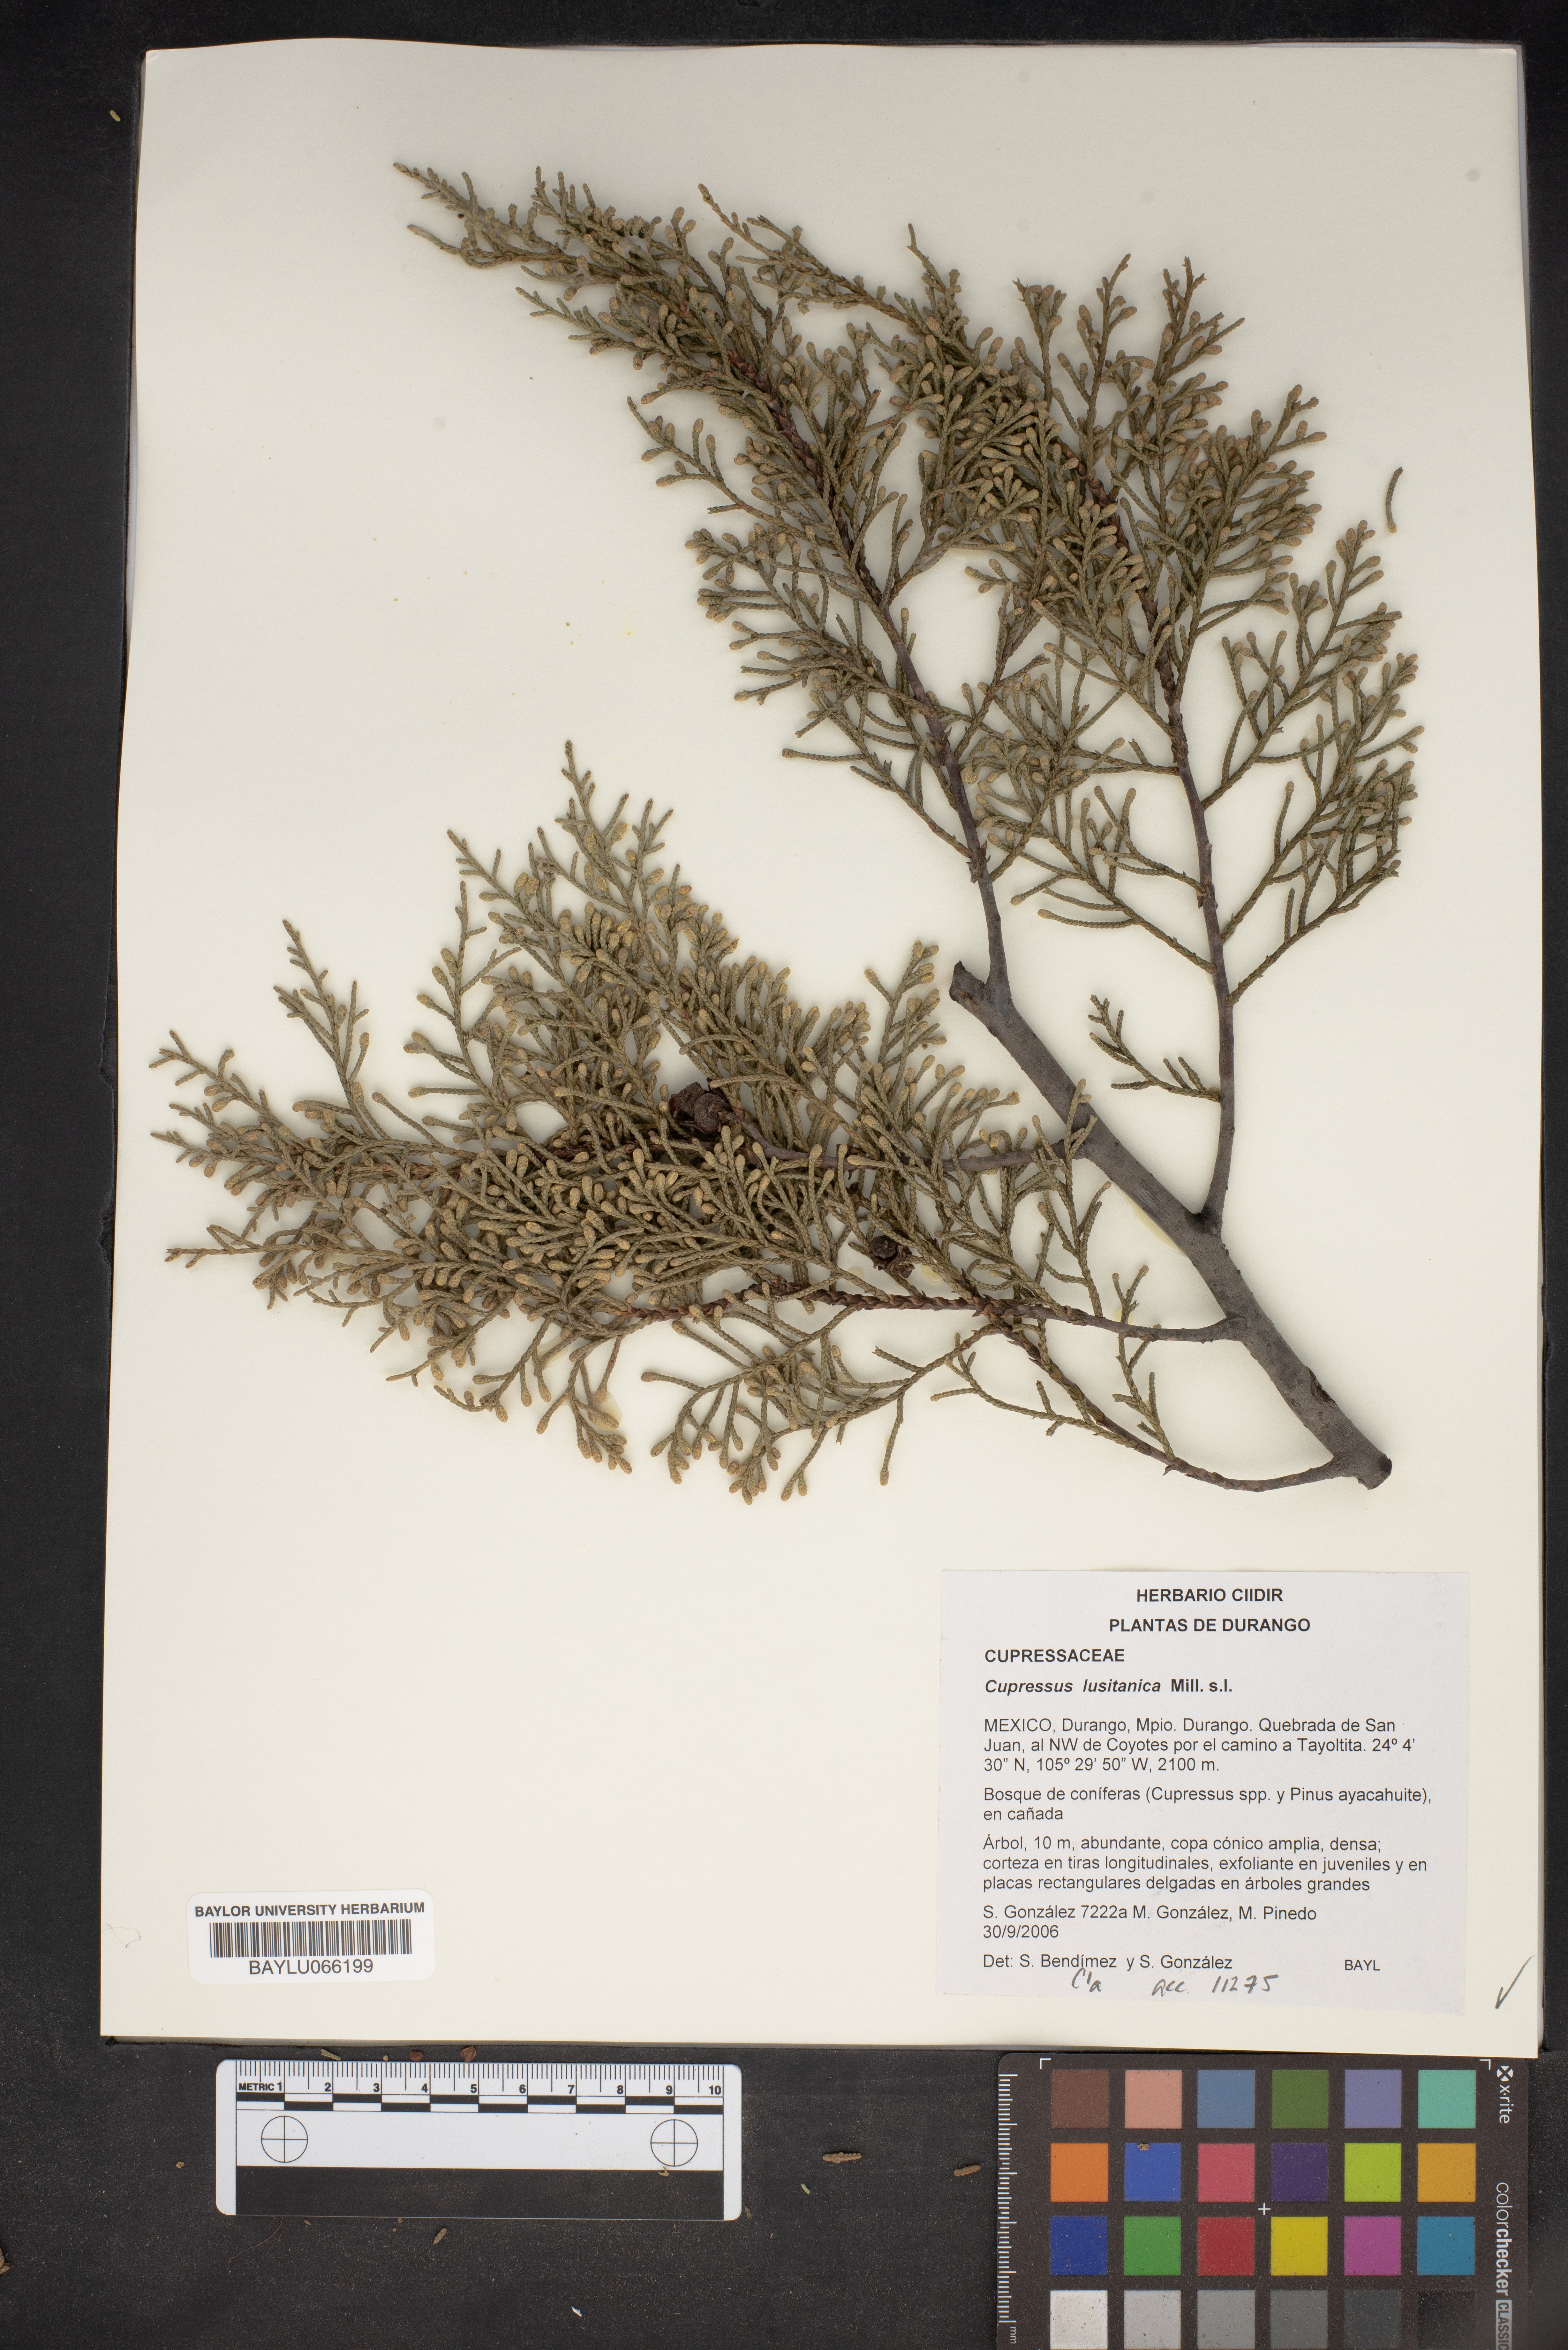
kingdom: Plantae
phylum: Tracheophyta
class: Pinopsida
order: Pinales
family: Cupressaceae
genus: Cupressus
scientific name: Cupressus lusitanica
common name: Mexican cypress
